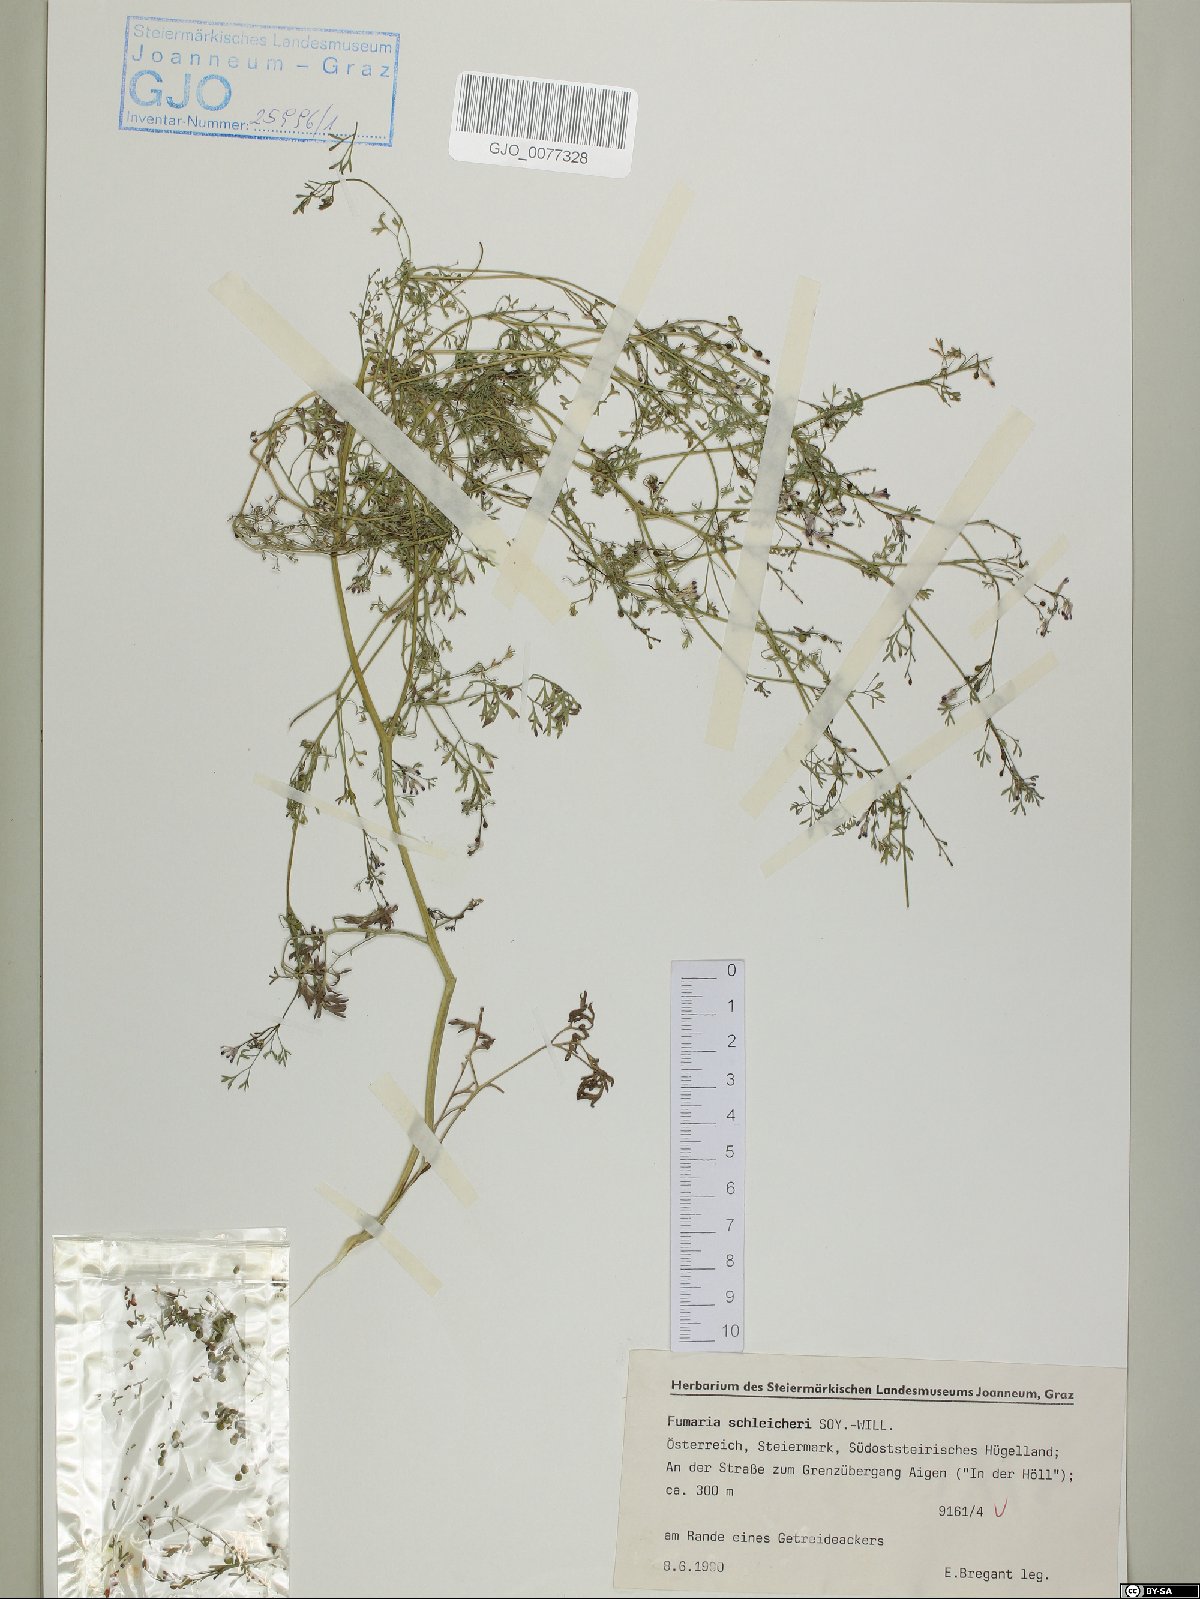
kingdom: Plantae
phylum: Tracheophyta
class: Magnoliopsida
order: Ranunculales
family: Papaveraceae
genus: Fumaria
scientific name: Fumaria schleicheri
